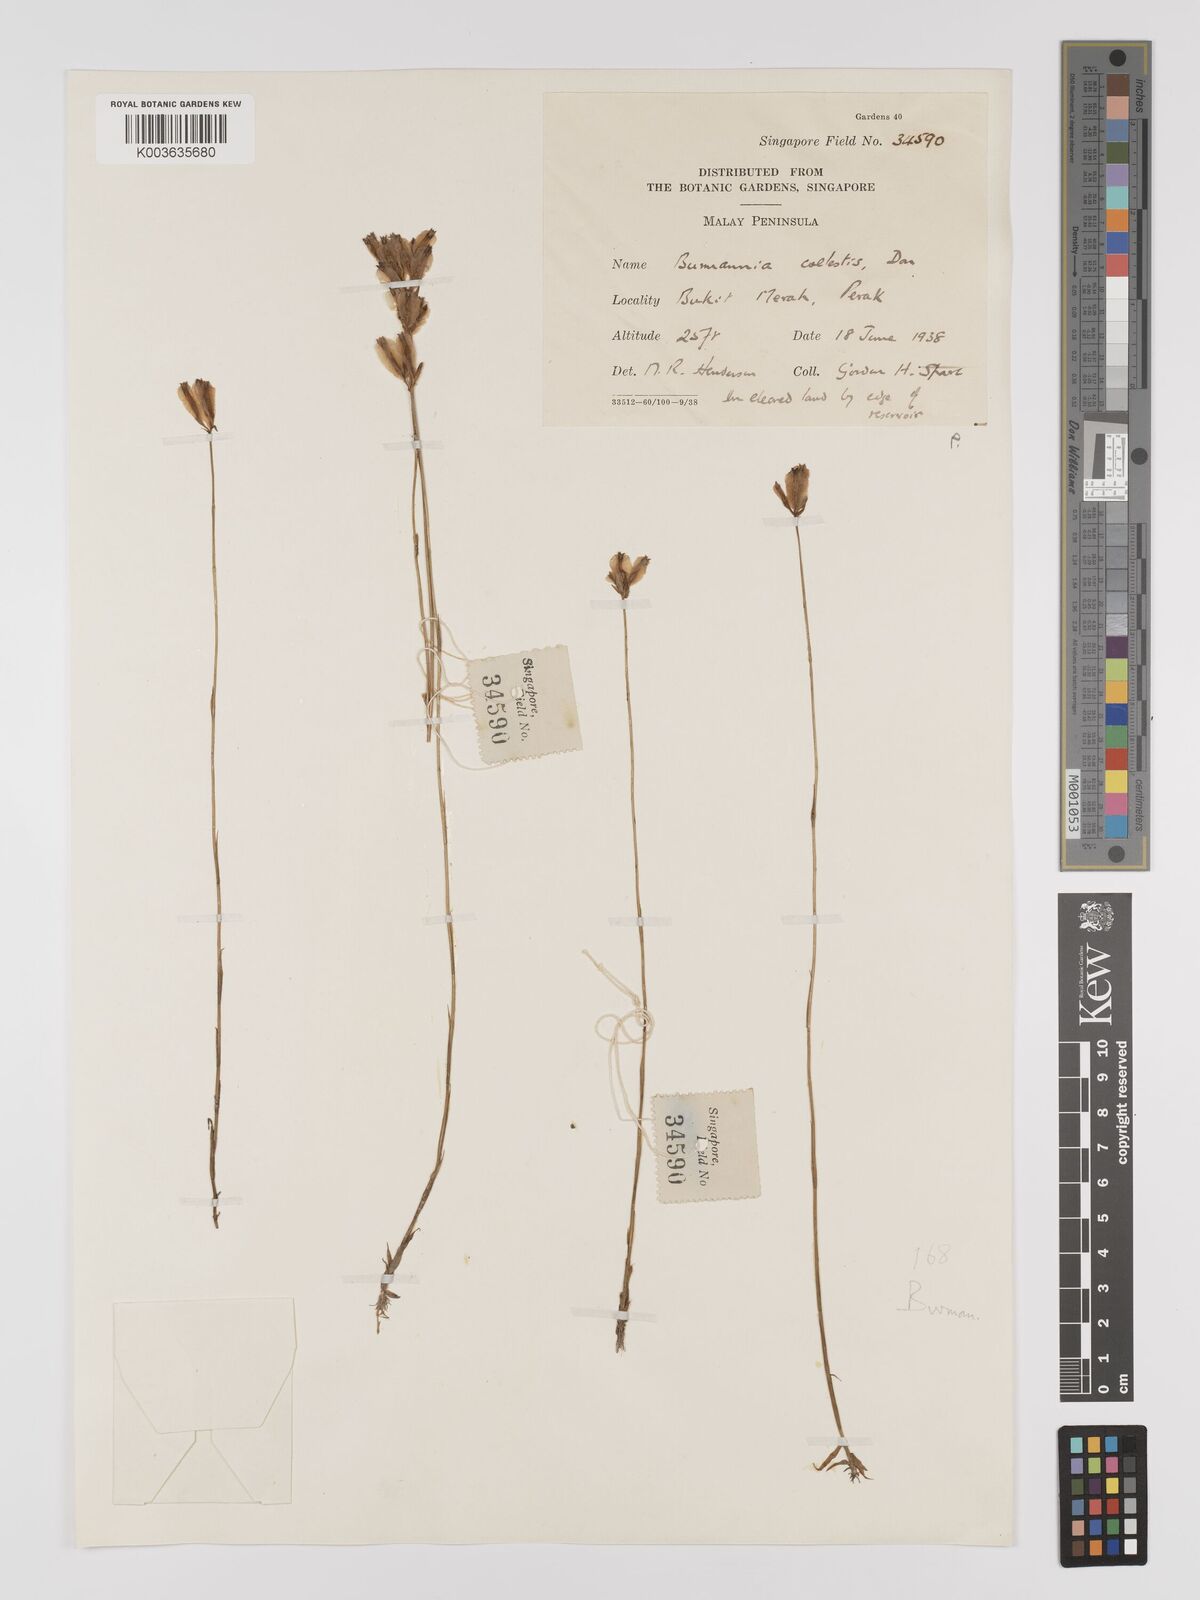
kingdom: Plantae
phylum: Tracheophyta
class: Liliopsida
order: Dioscoreales
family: Burmanniaceae
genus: Burmannia
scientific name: Burmannia coelestis
